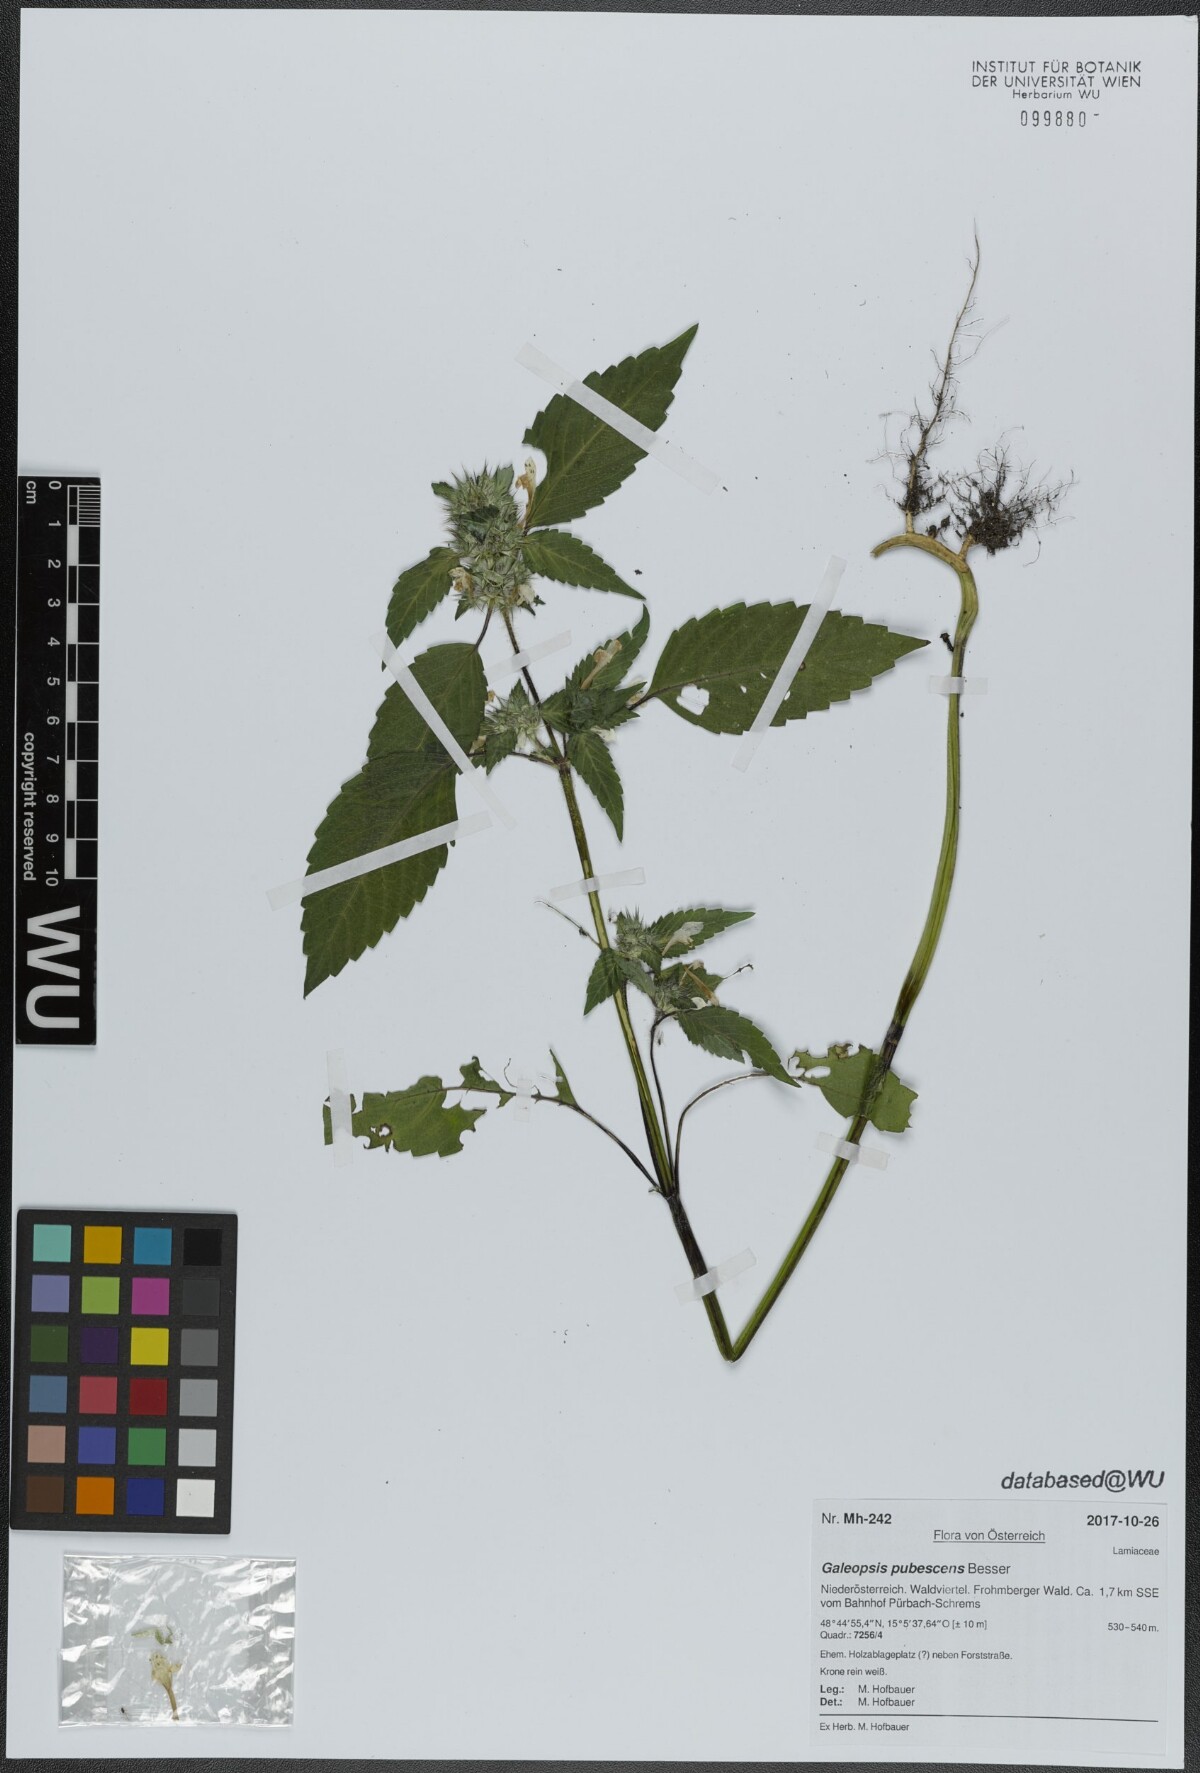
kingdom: Plantae
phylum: Tracheophyta
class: Magnoliopsida
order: Lamiales
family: Lamiaceae
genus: Galeopsis
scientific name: Galeopsis pubescens
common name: Downy hemp-nettle
